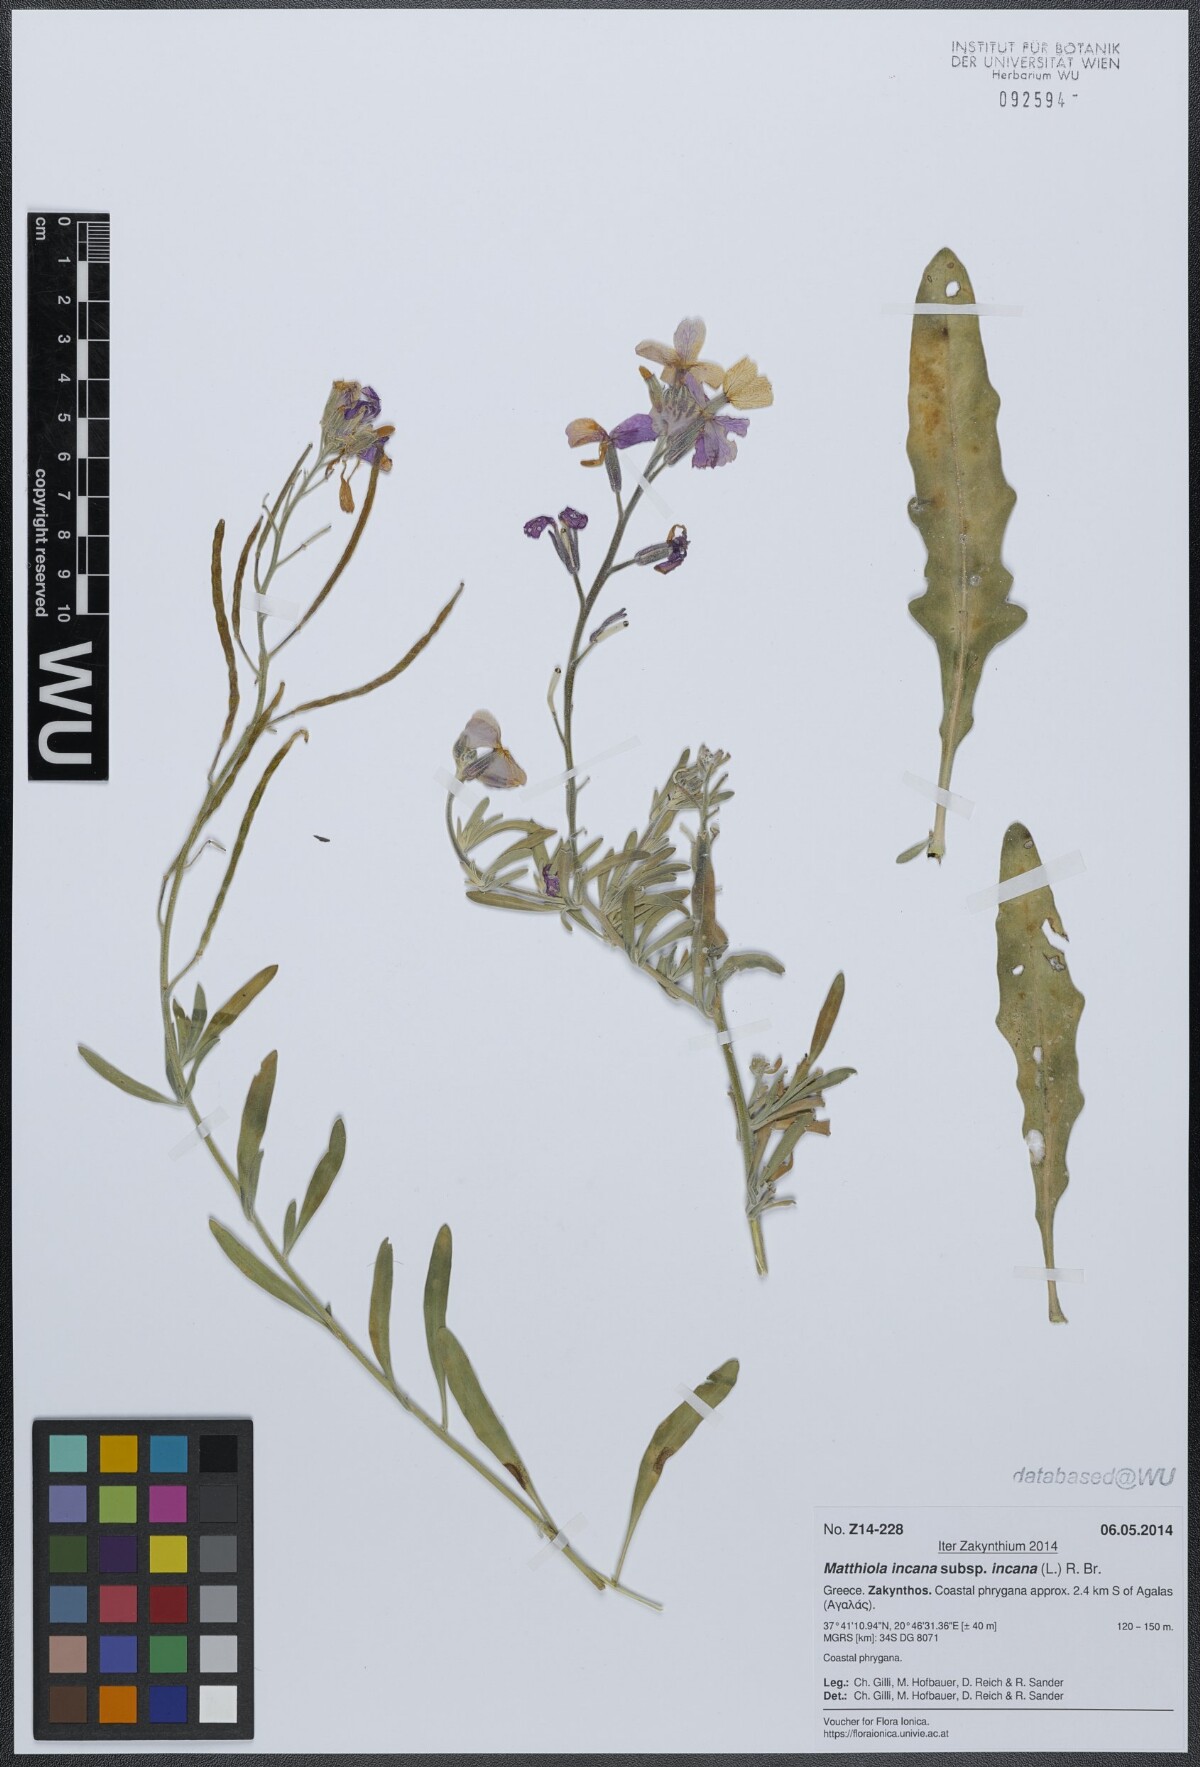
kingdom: Plantae
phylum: Tracheophyta
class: Magnoliopsida
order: Brassicales
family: Brassicaceae
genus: Matthiola
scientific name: Matthiola incana
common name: Hoary stock
